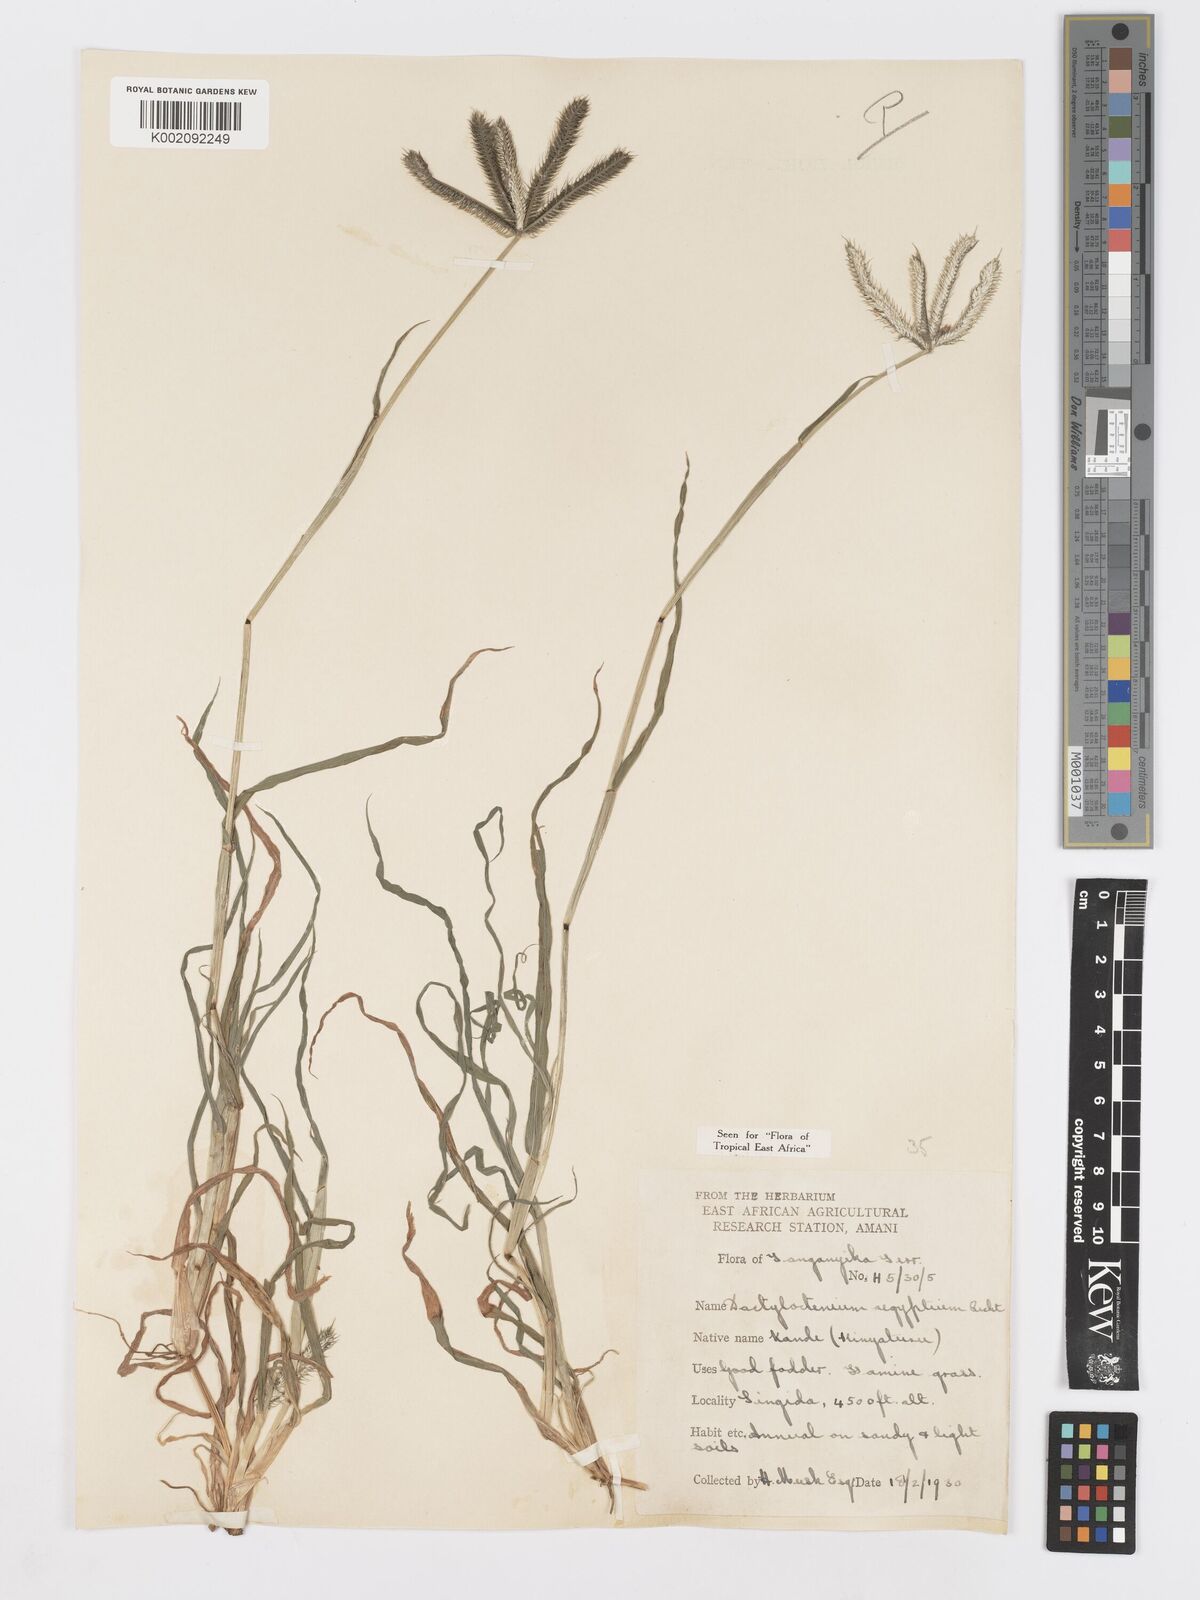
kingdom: Plantae
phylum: Tracheophyta
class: Liliopsida
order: Poales
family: Poaceae
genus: Dactyloctenium
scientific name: Dactyloctenium aegyptium
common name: Egyptian grass
